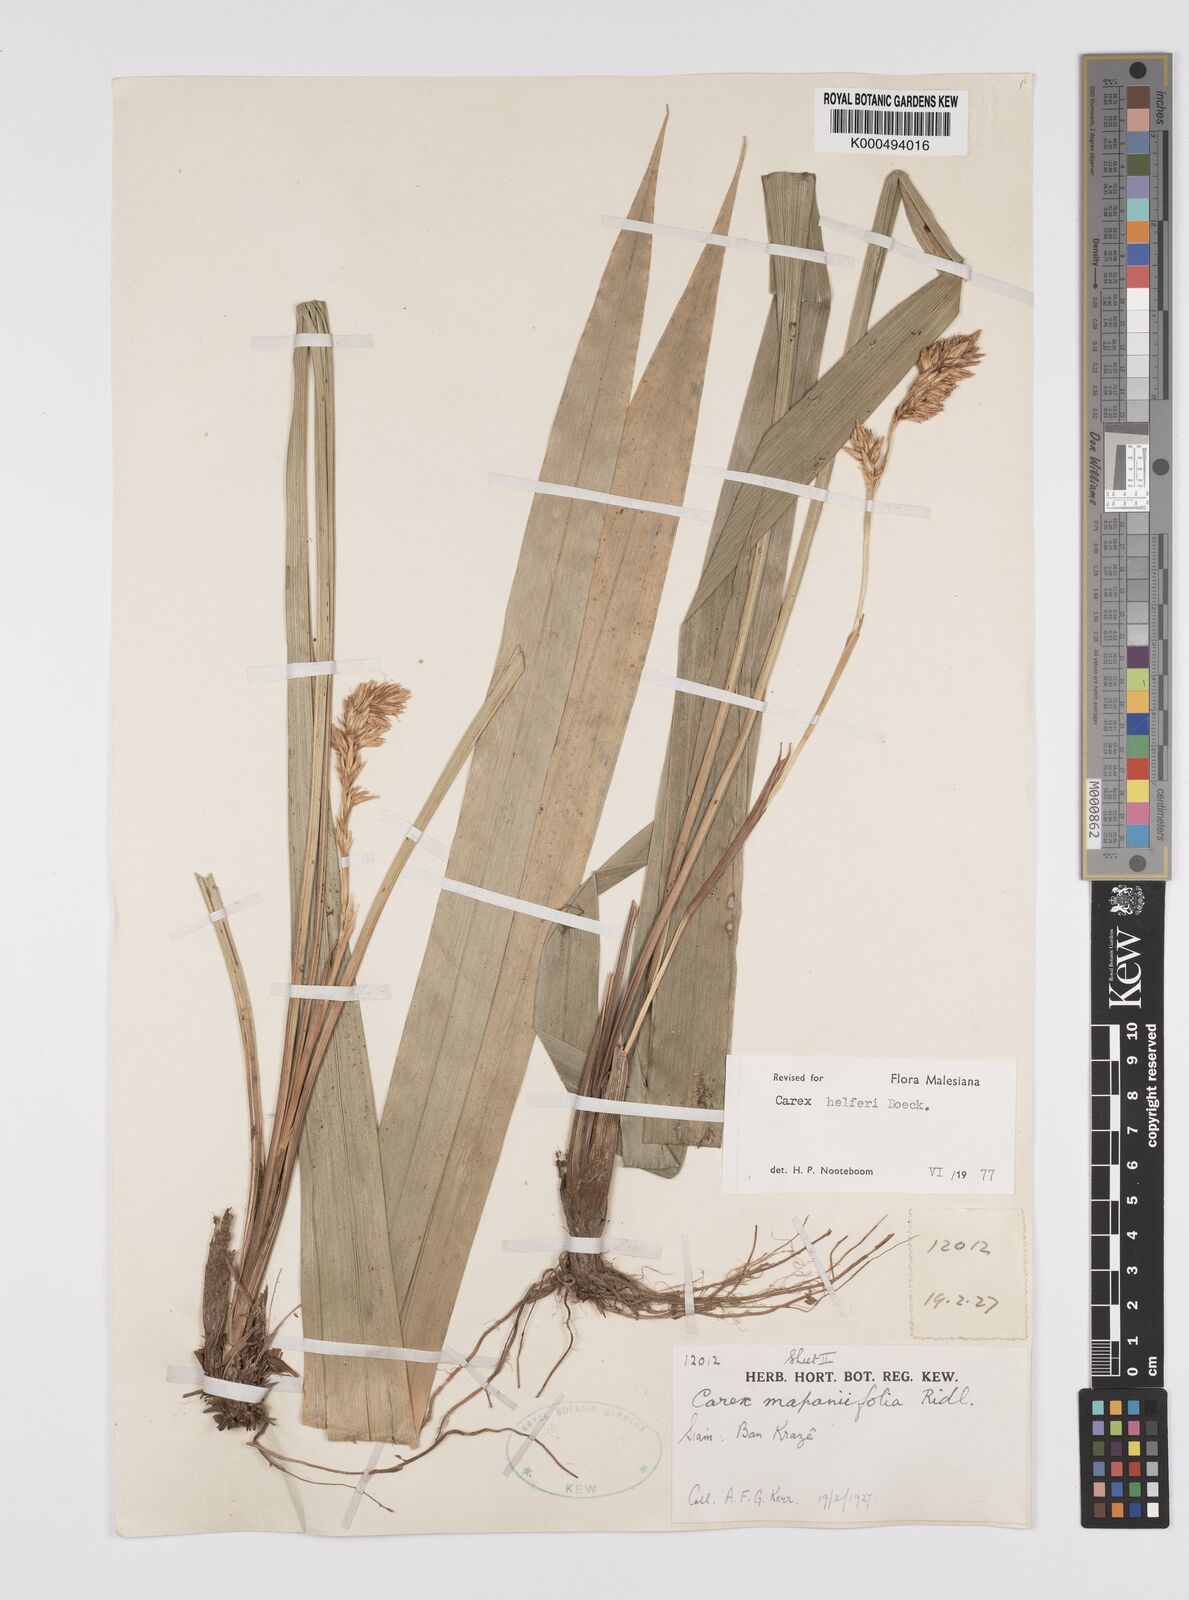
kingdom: Plantae
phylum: Tracheophyta
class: Liliopsida
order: Poales
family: Cyperaceae
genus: Carex
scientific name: Carex helferi
